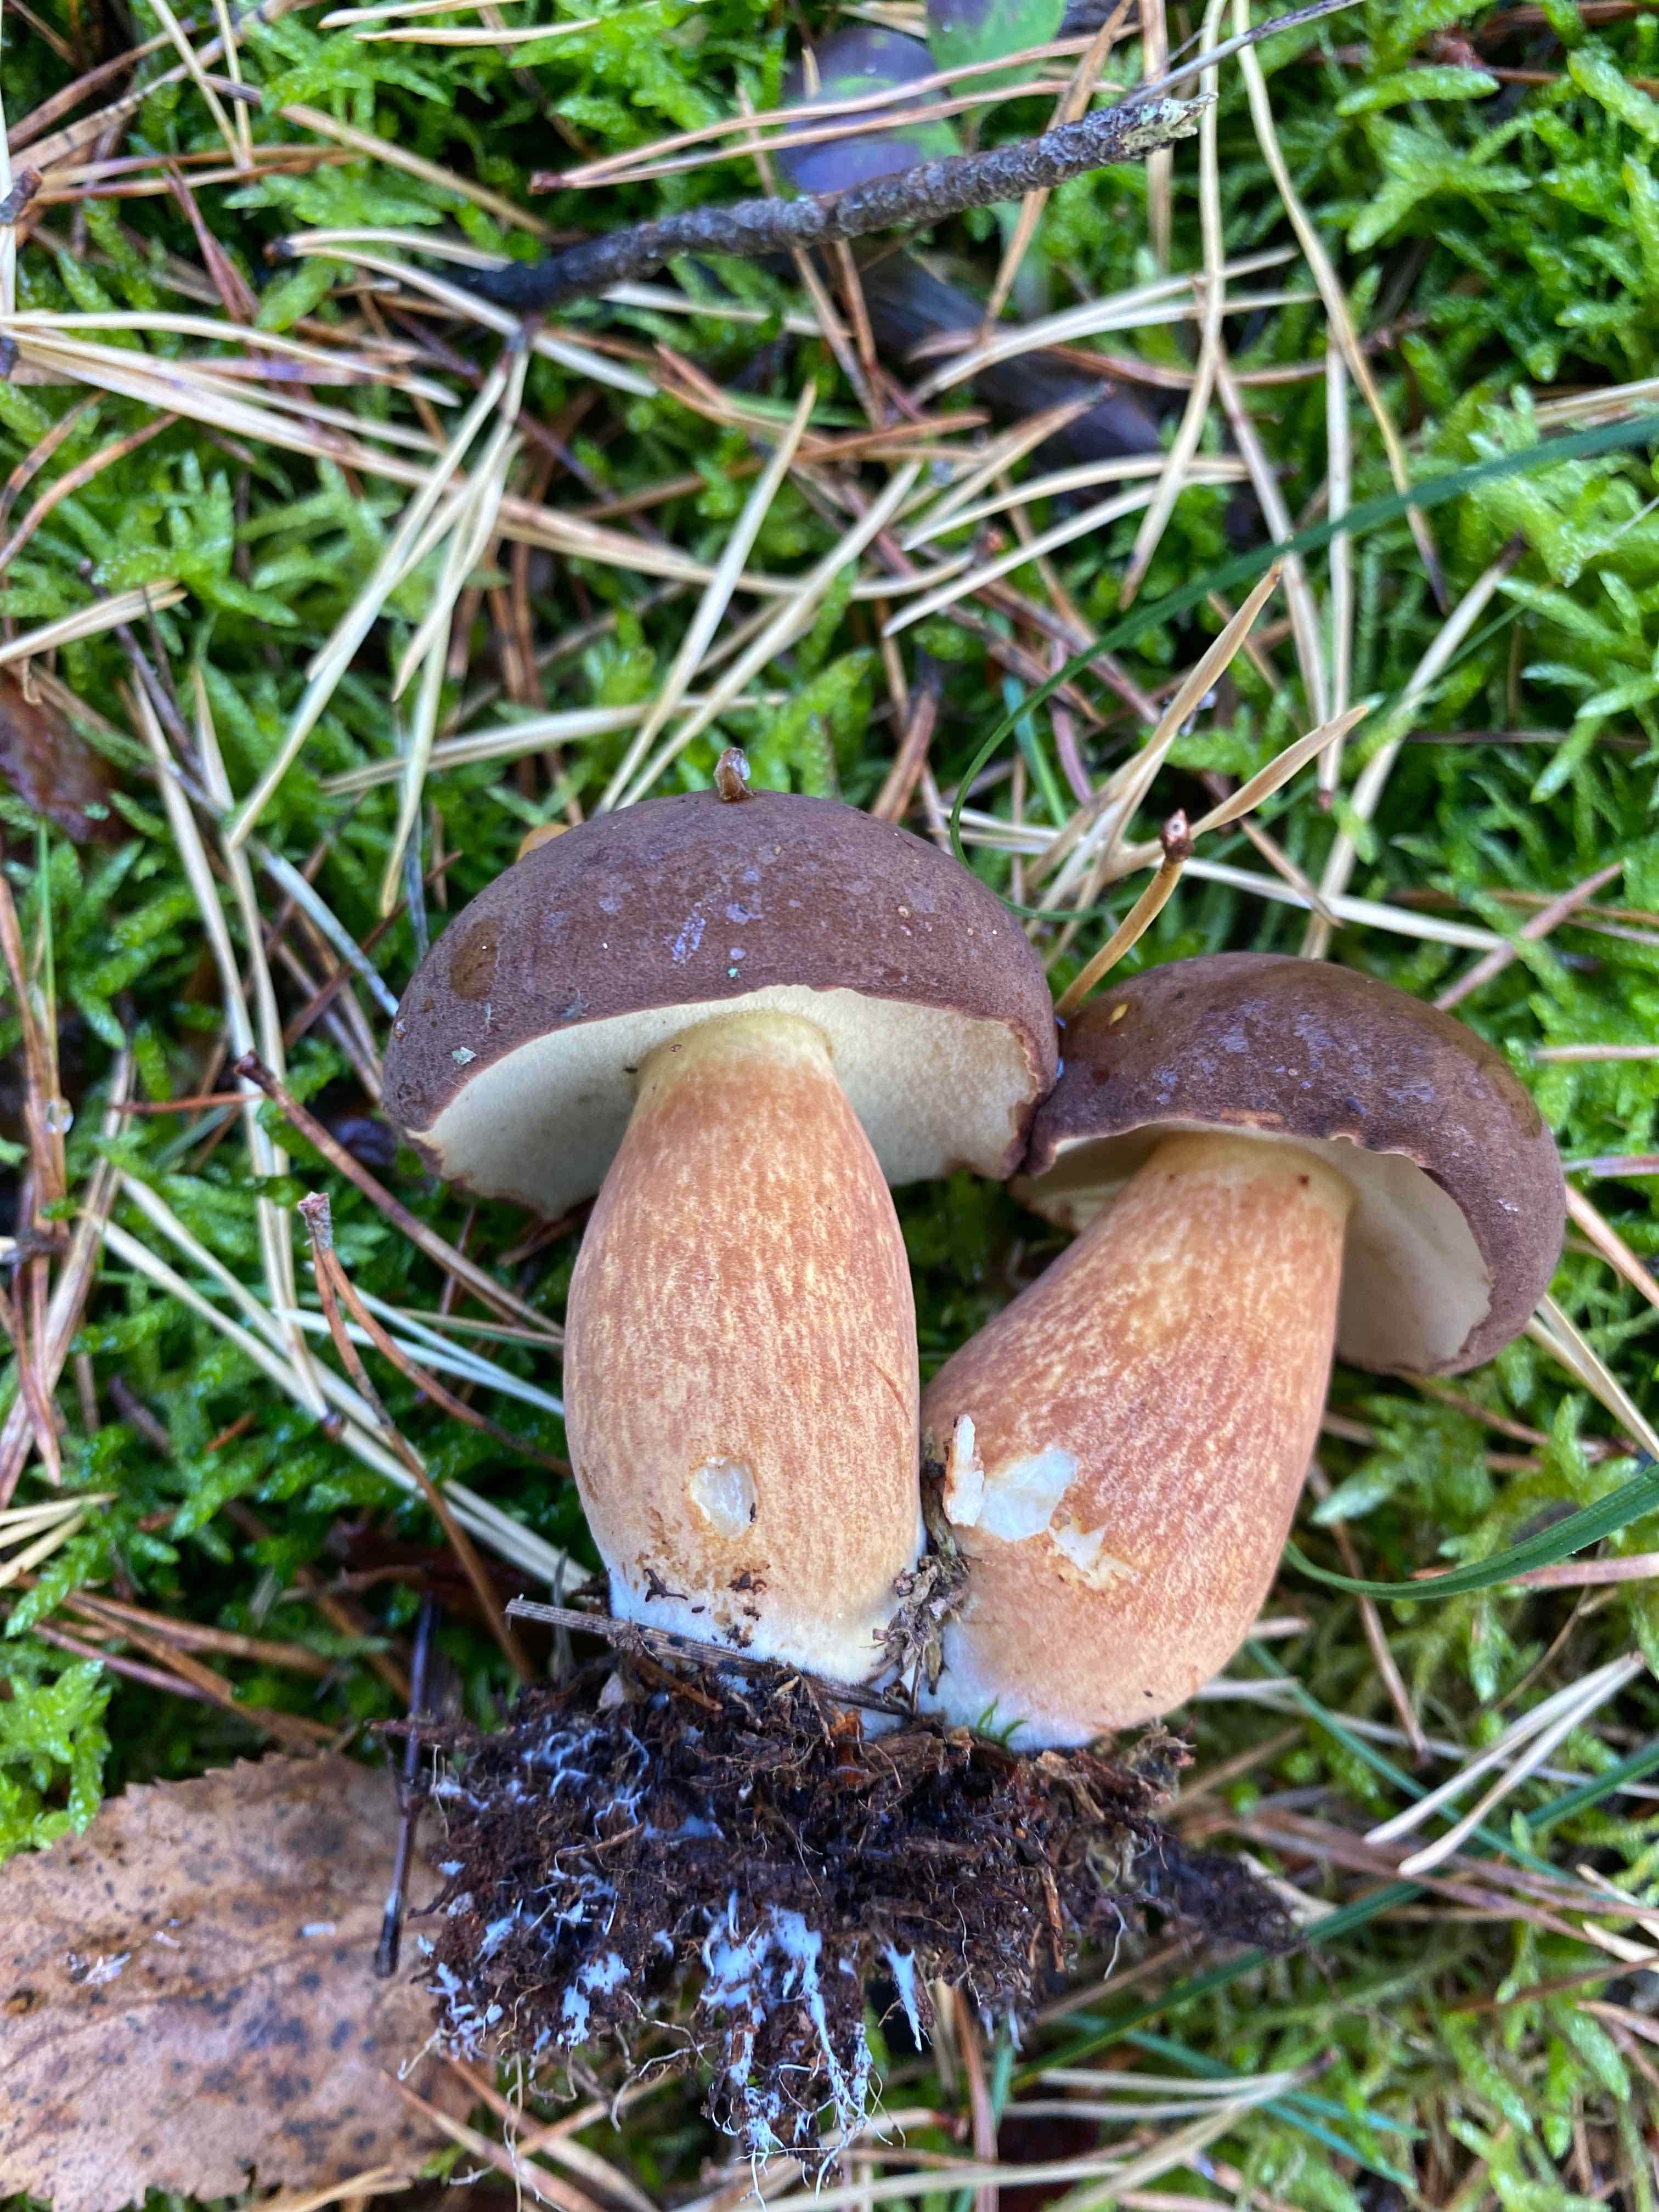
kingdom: Fungi
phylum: Basidiomycota
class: Agaricomycetes
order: Boletales
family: Boletaceae
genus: Imleria
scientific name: Imleria badia
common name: brunstokket rørhat
